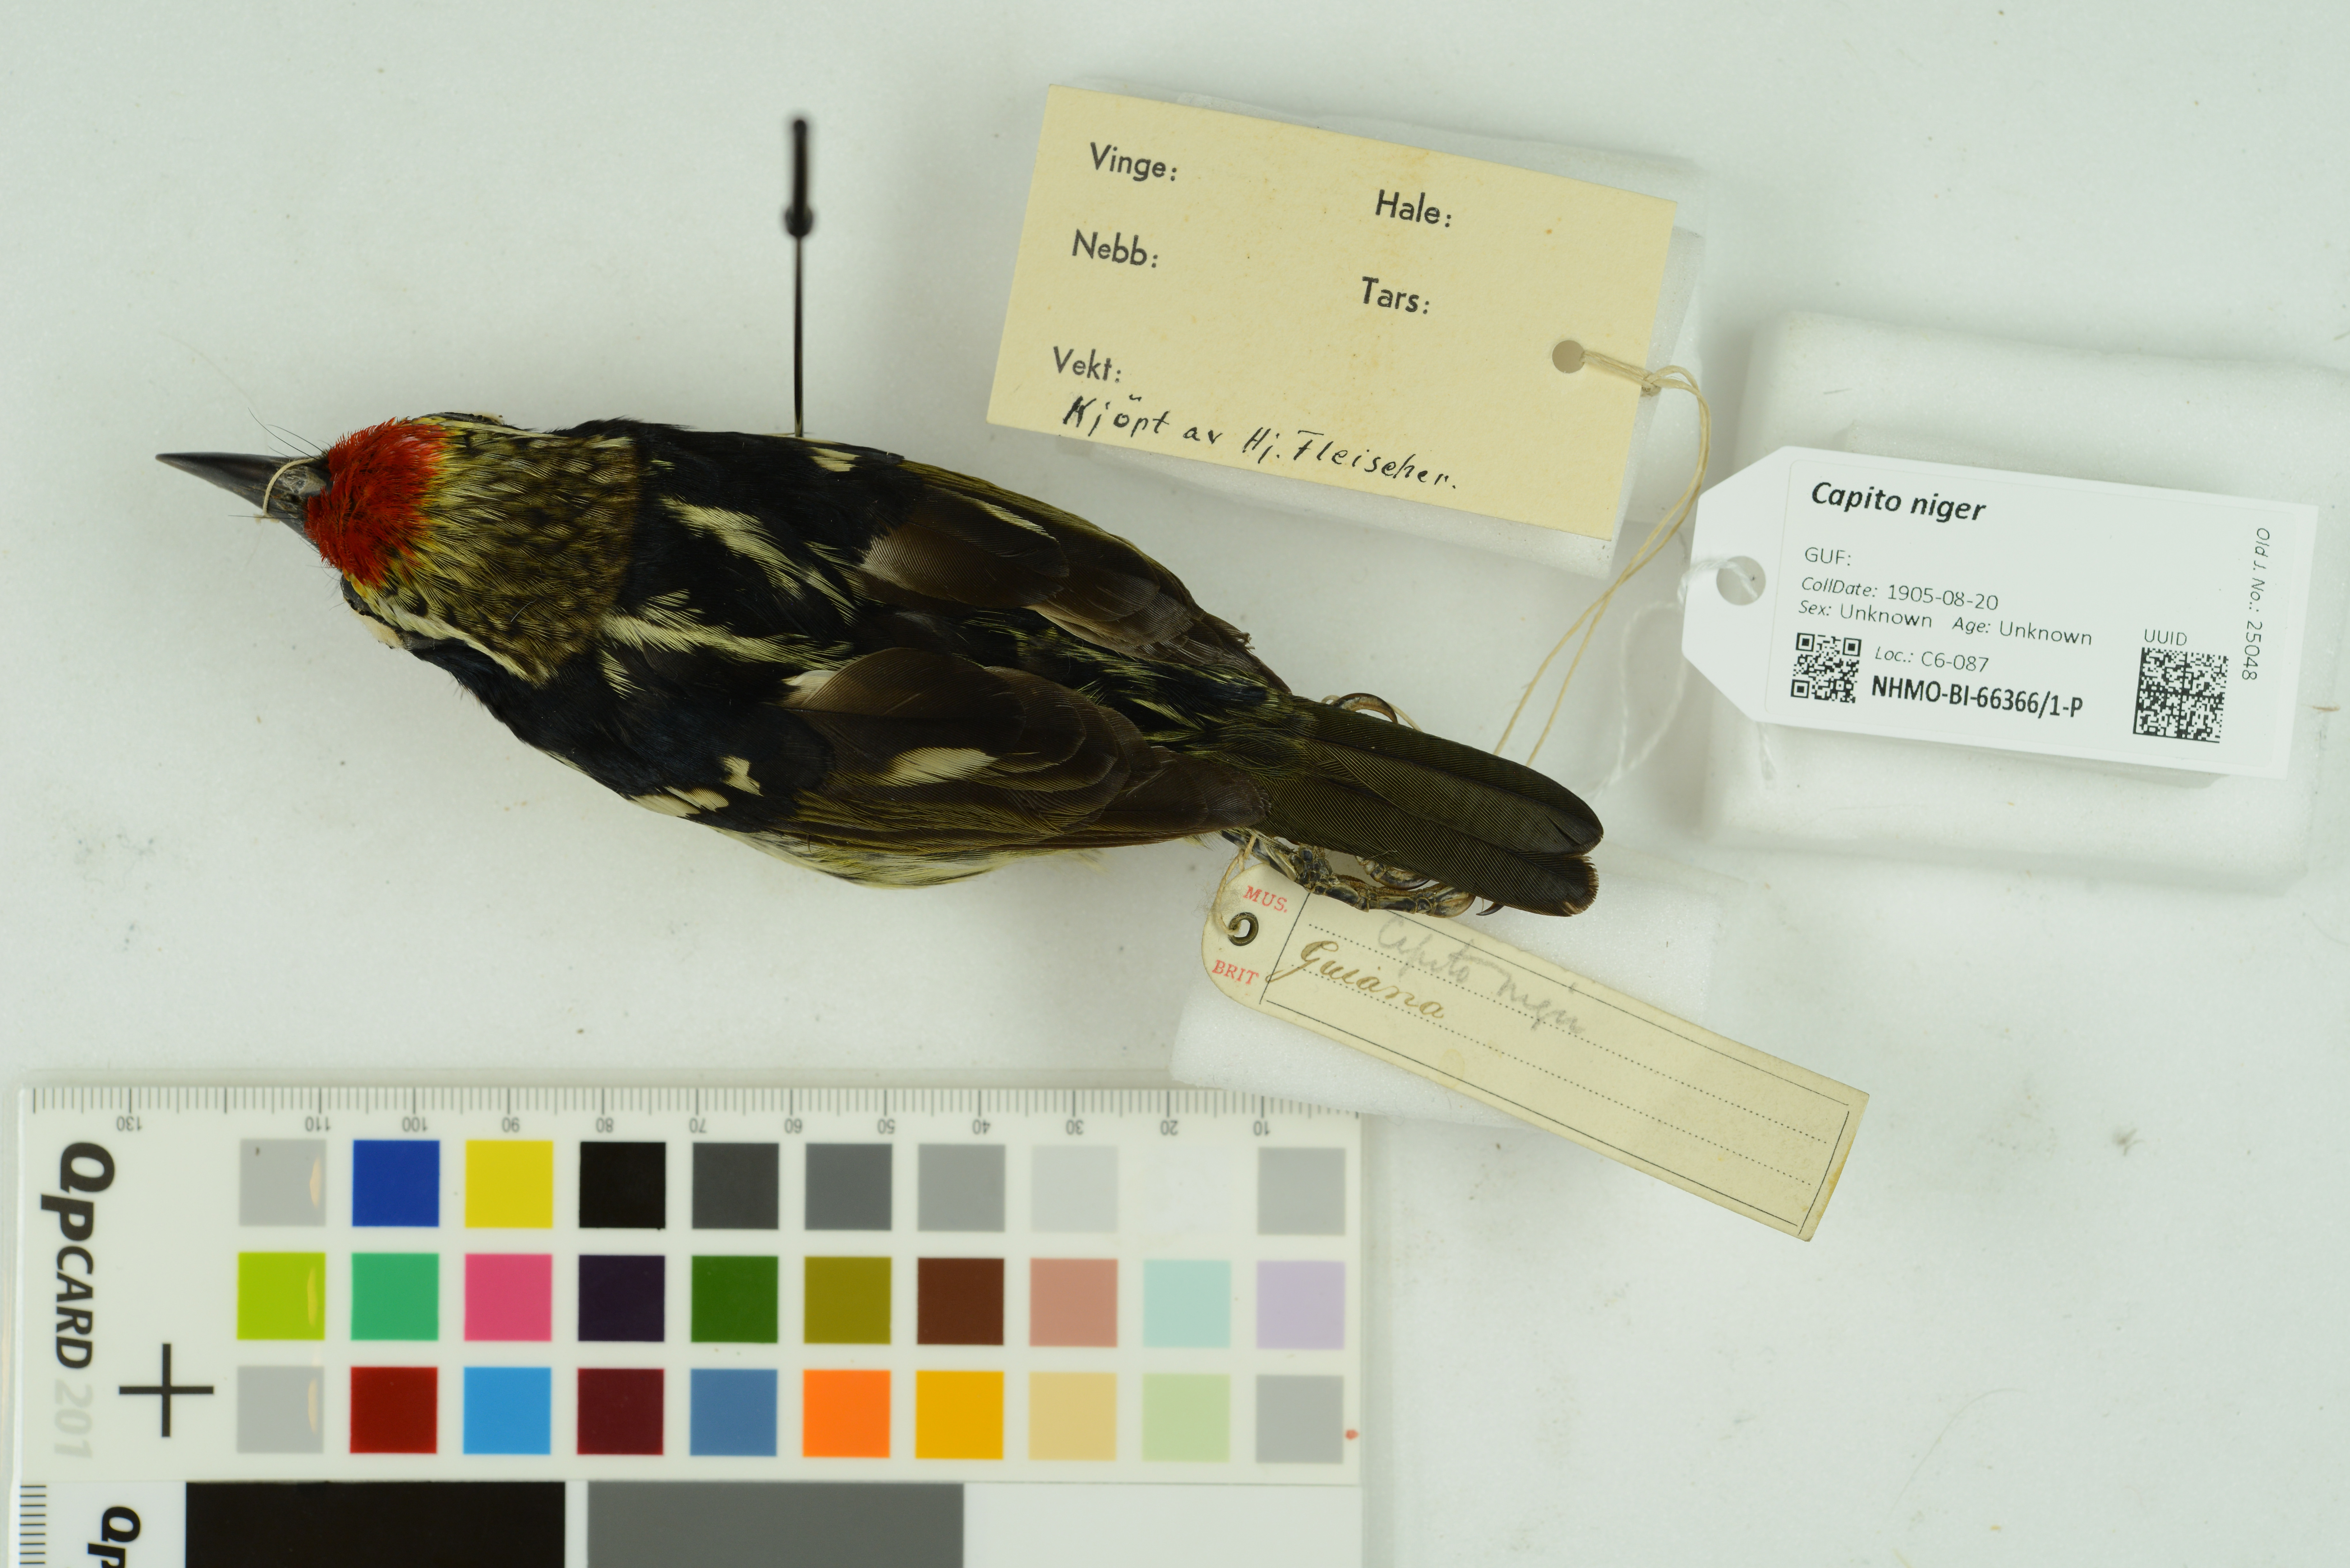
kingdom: Animalia
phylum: Chordata
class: Aves
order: Piciformes
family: Capitonidae
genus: Capito
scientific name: Capito niger
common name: Black-spotted barbet
